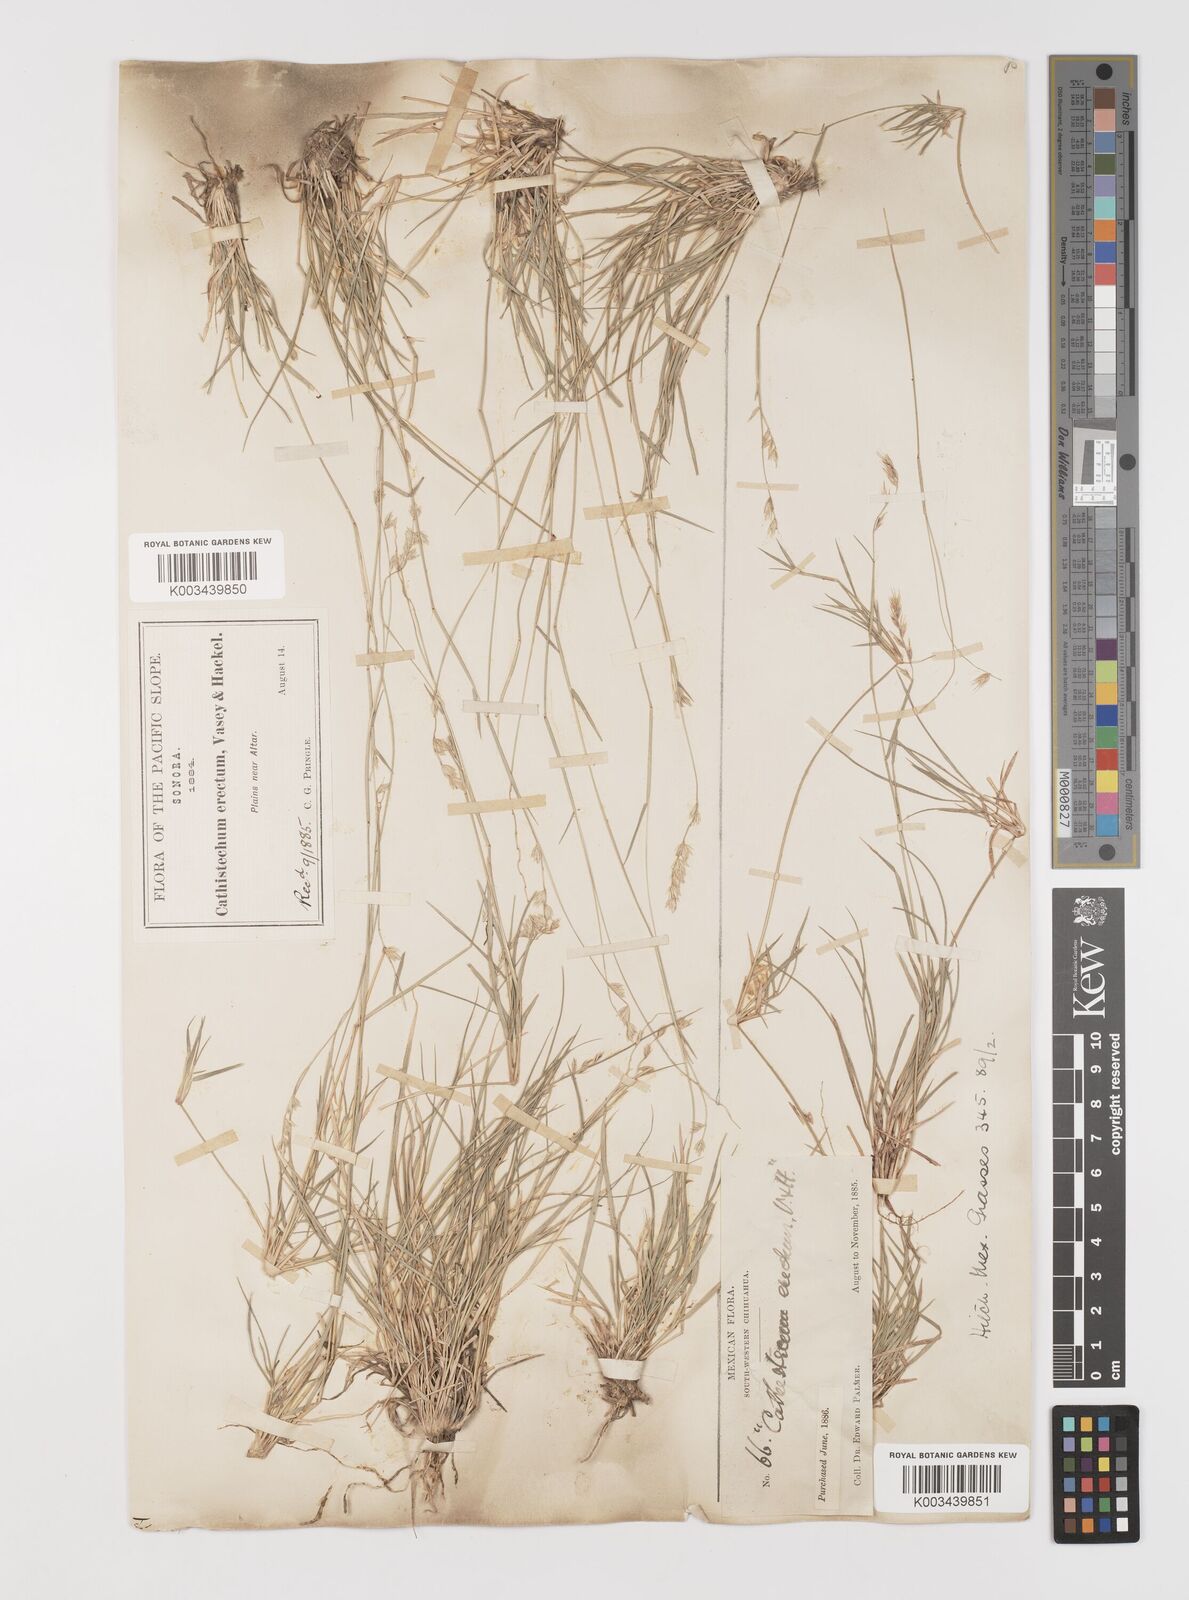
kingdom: Plantae
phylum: Tracheophyta
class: Liliopsida
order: Poales
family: Poaceae
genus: Bouteloua
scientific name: Bouteloua erecta
